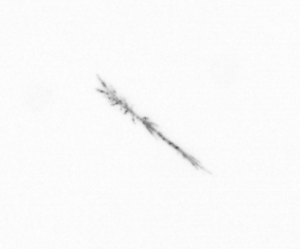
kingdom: Chromista
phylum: Ochrophyta
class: Bacillariophyceae
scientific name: Bacillariophyceae
